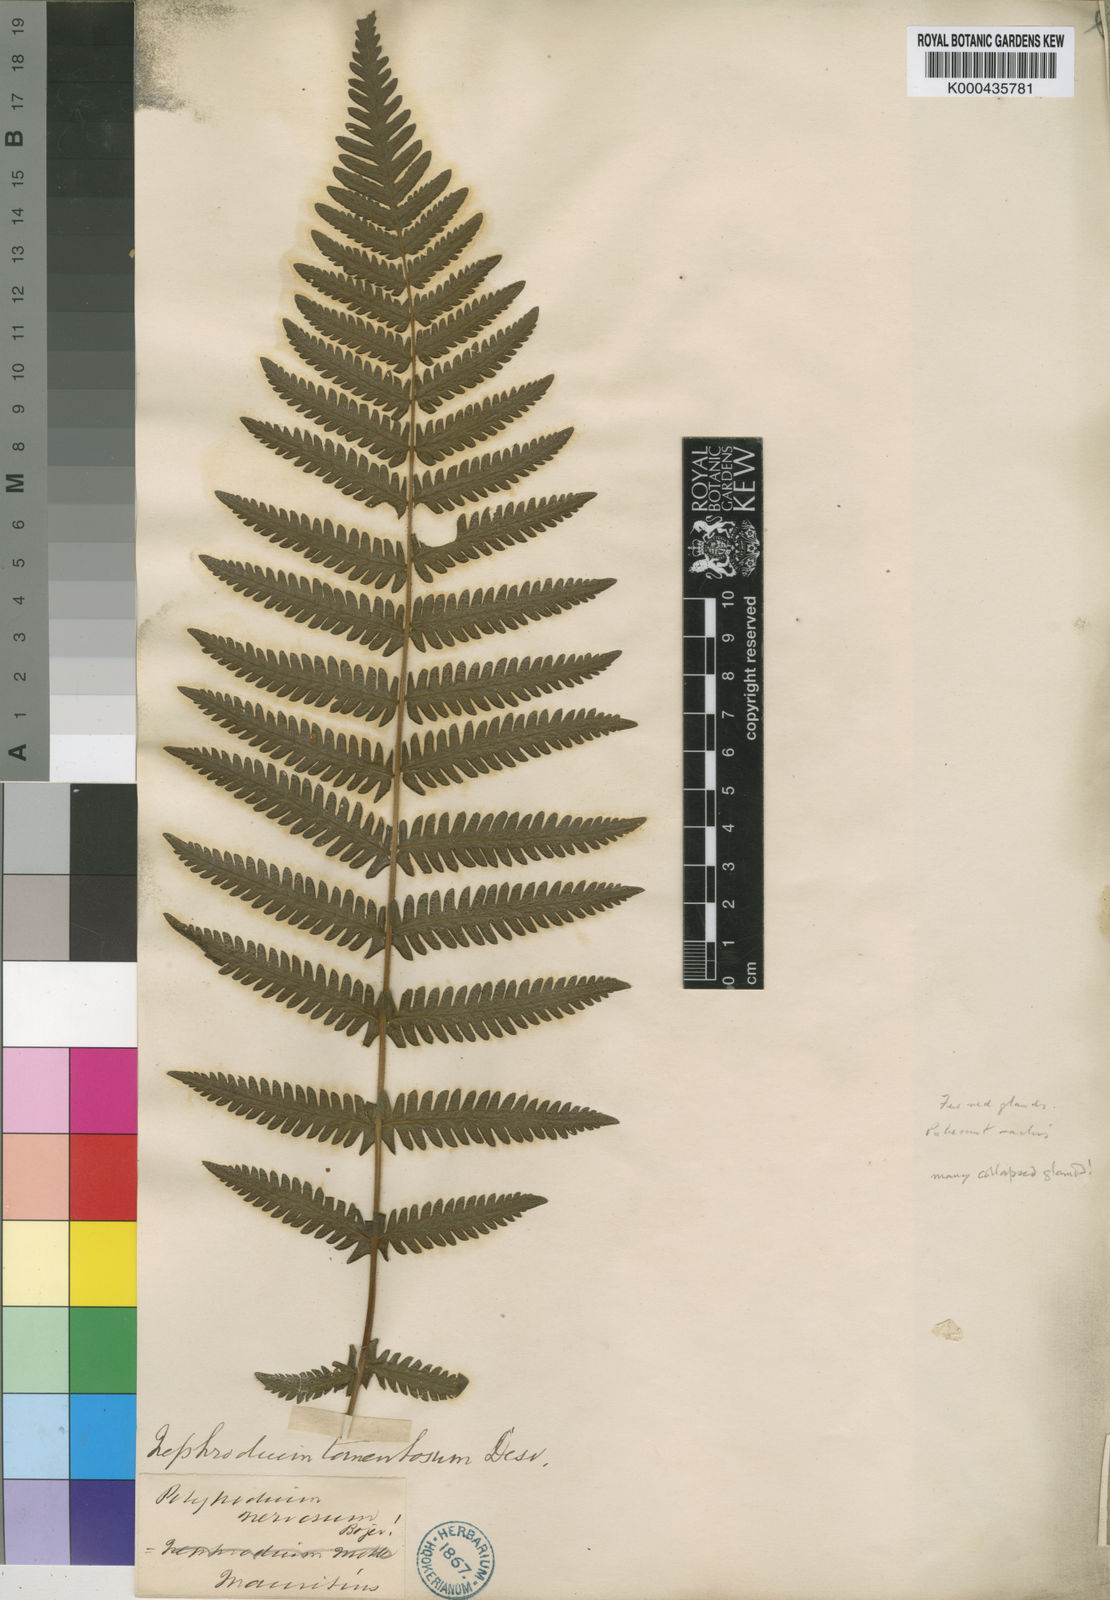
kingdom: Plantae
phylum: Tracheophyta
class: Polypodiopsida
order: Polypodiales
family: Thelypteridaceae
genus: Amauropelta
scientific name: Amauropelta tomentosa
